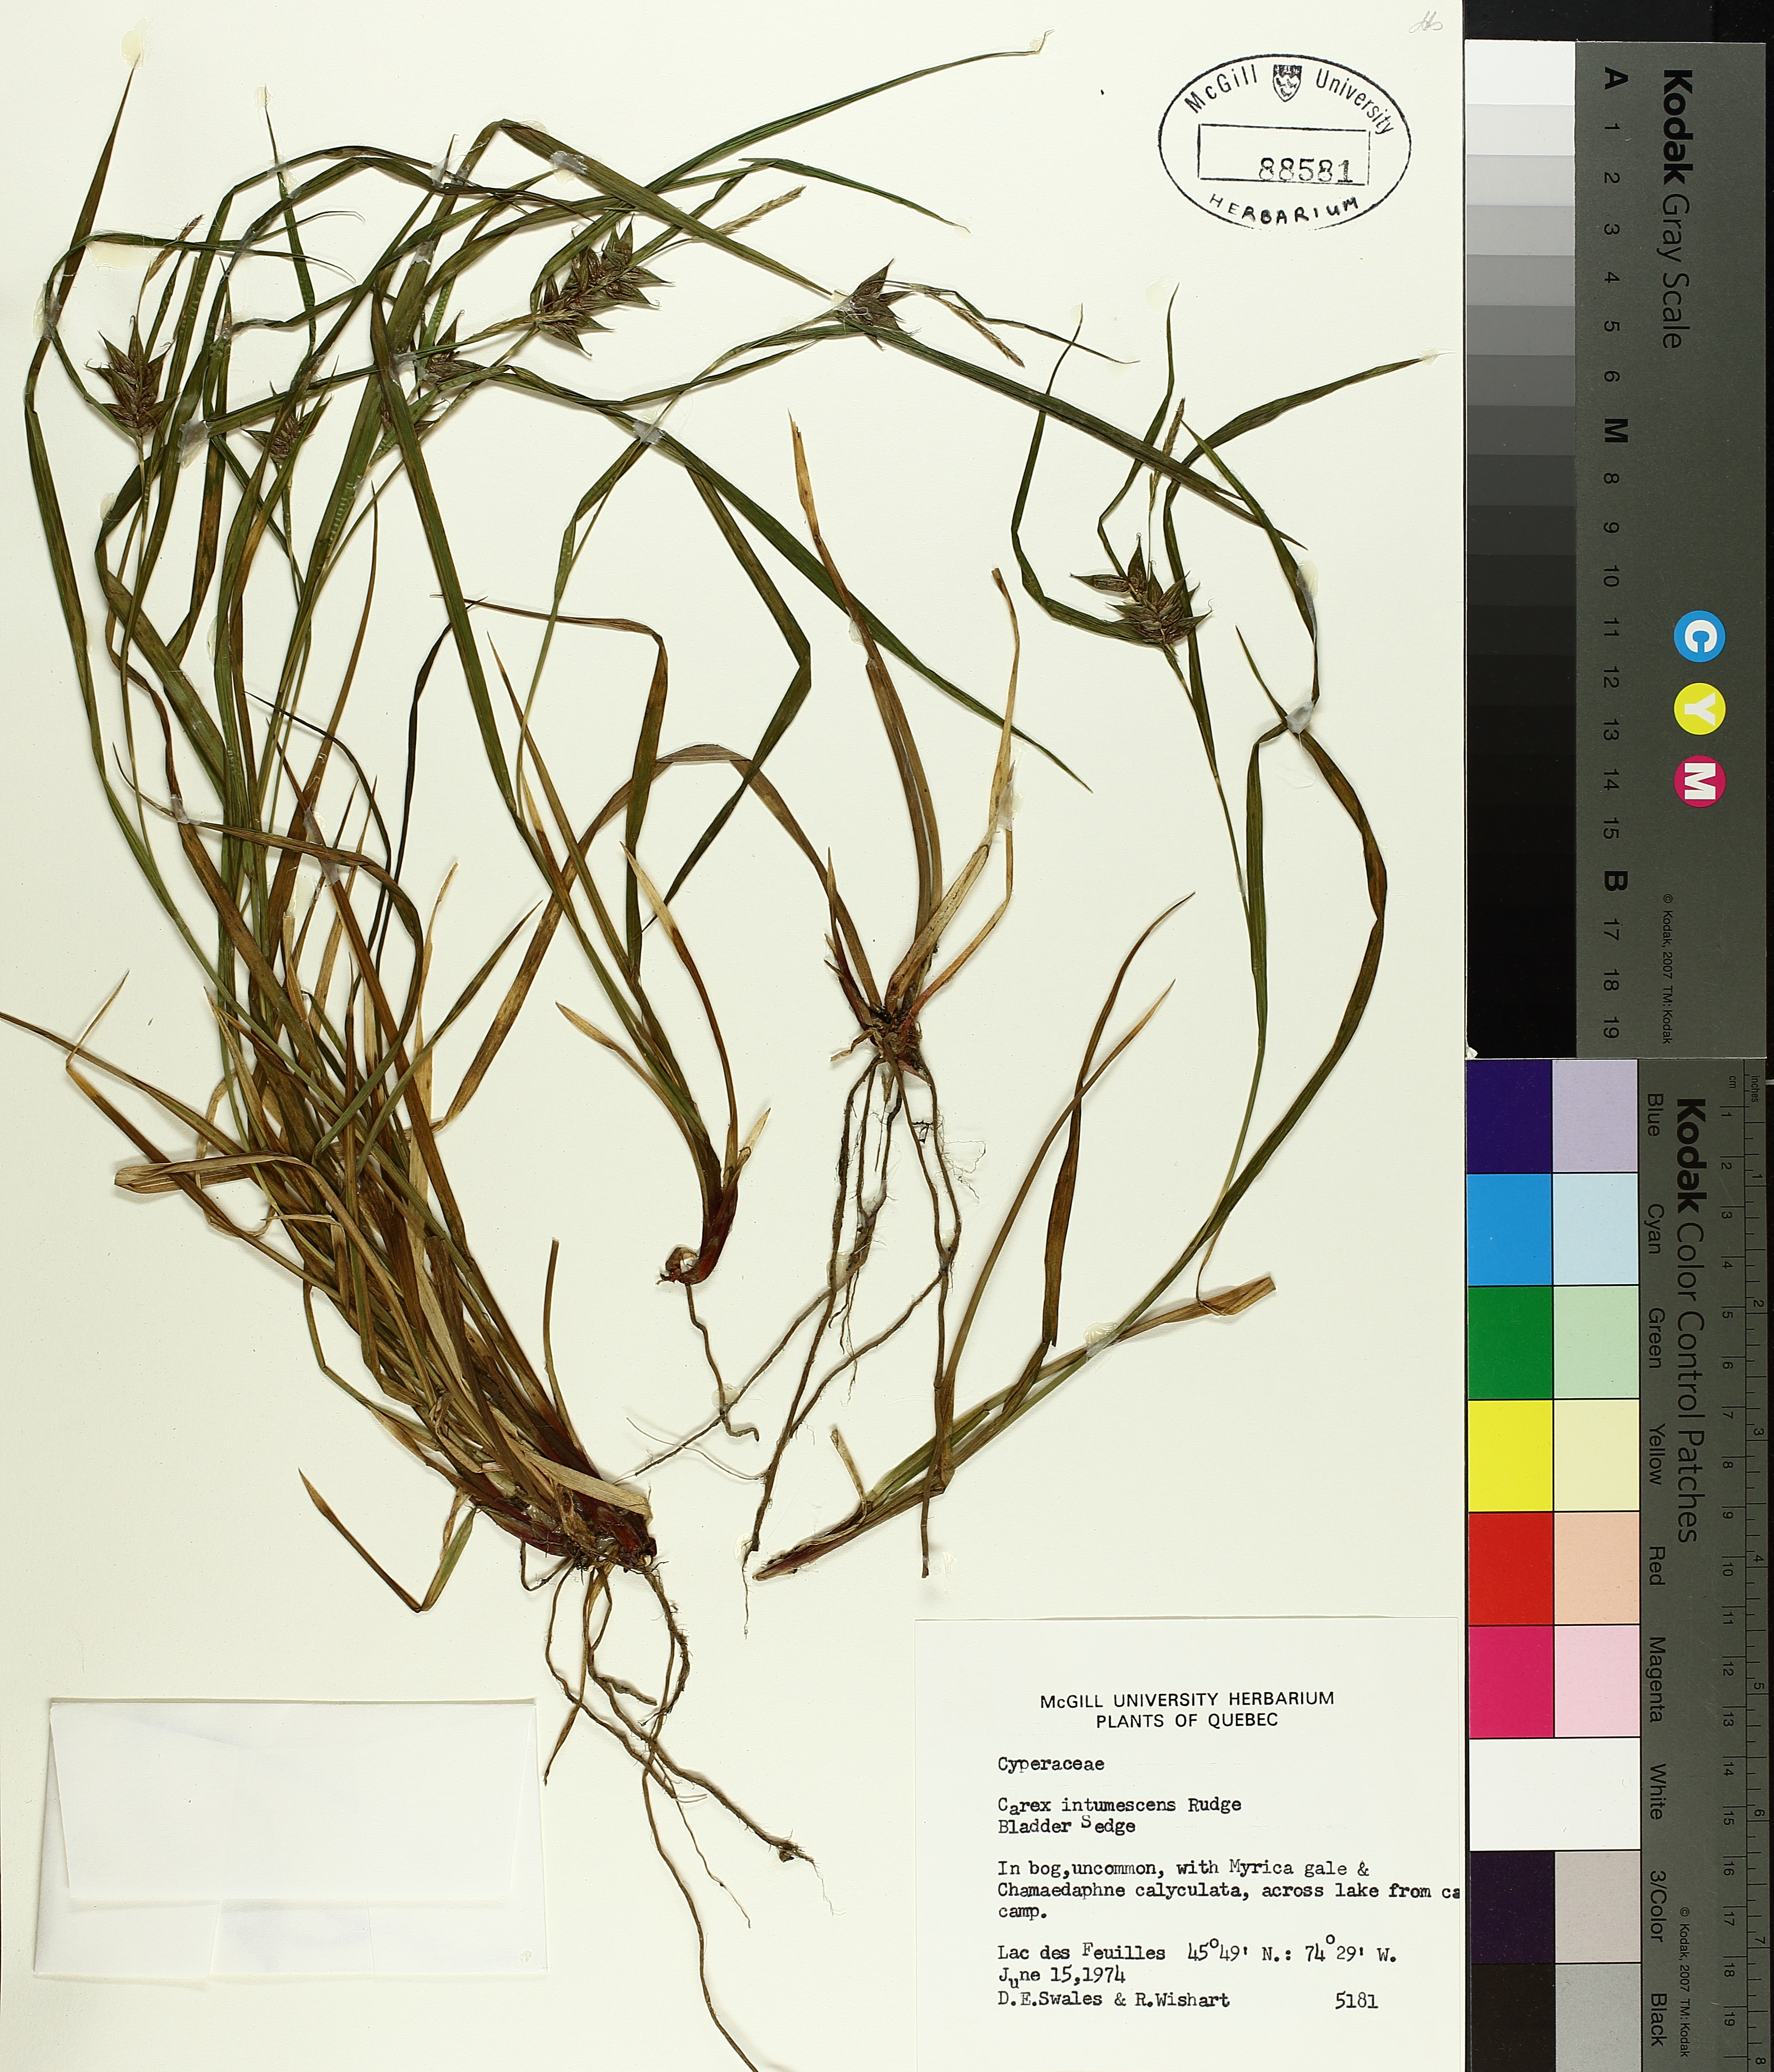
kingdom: Plantae
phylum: Tracheophyta
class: Liliopsida
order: Poales
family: Cyperaceae
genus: Carex
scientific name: Carex intumescens
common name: Greater bladder sedge
